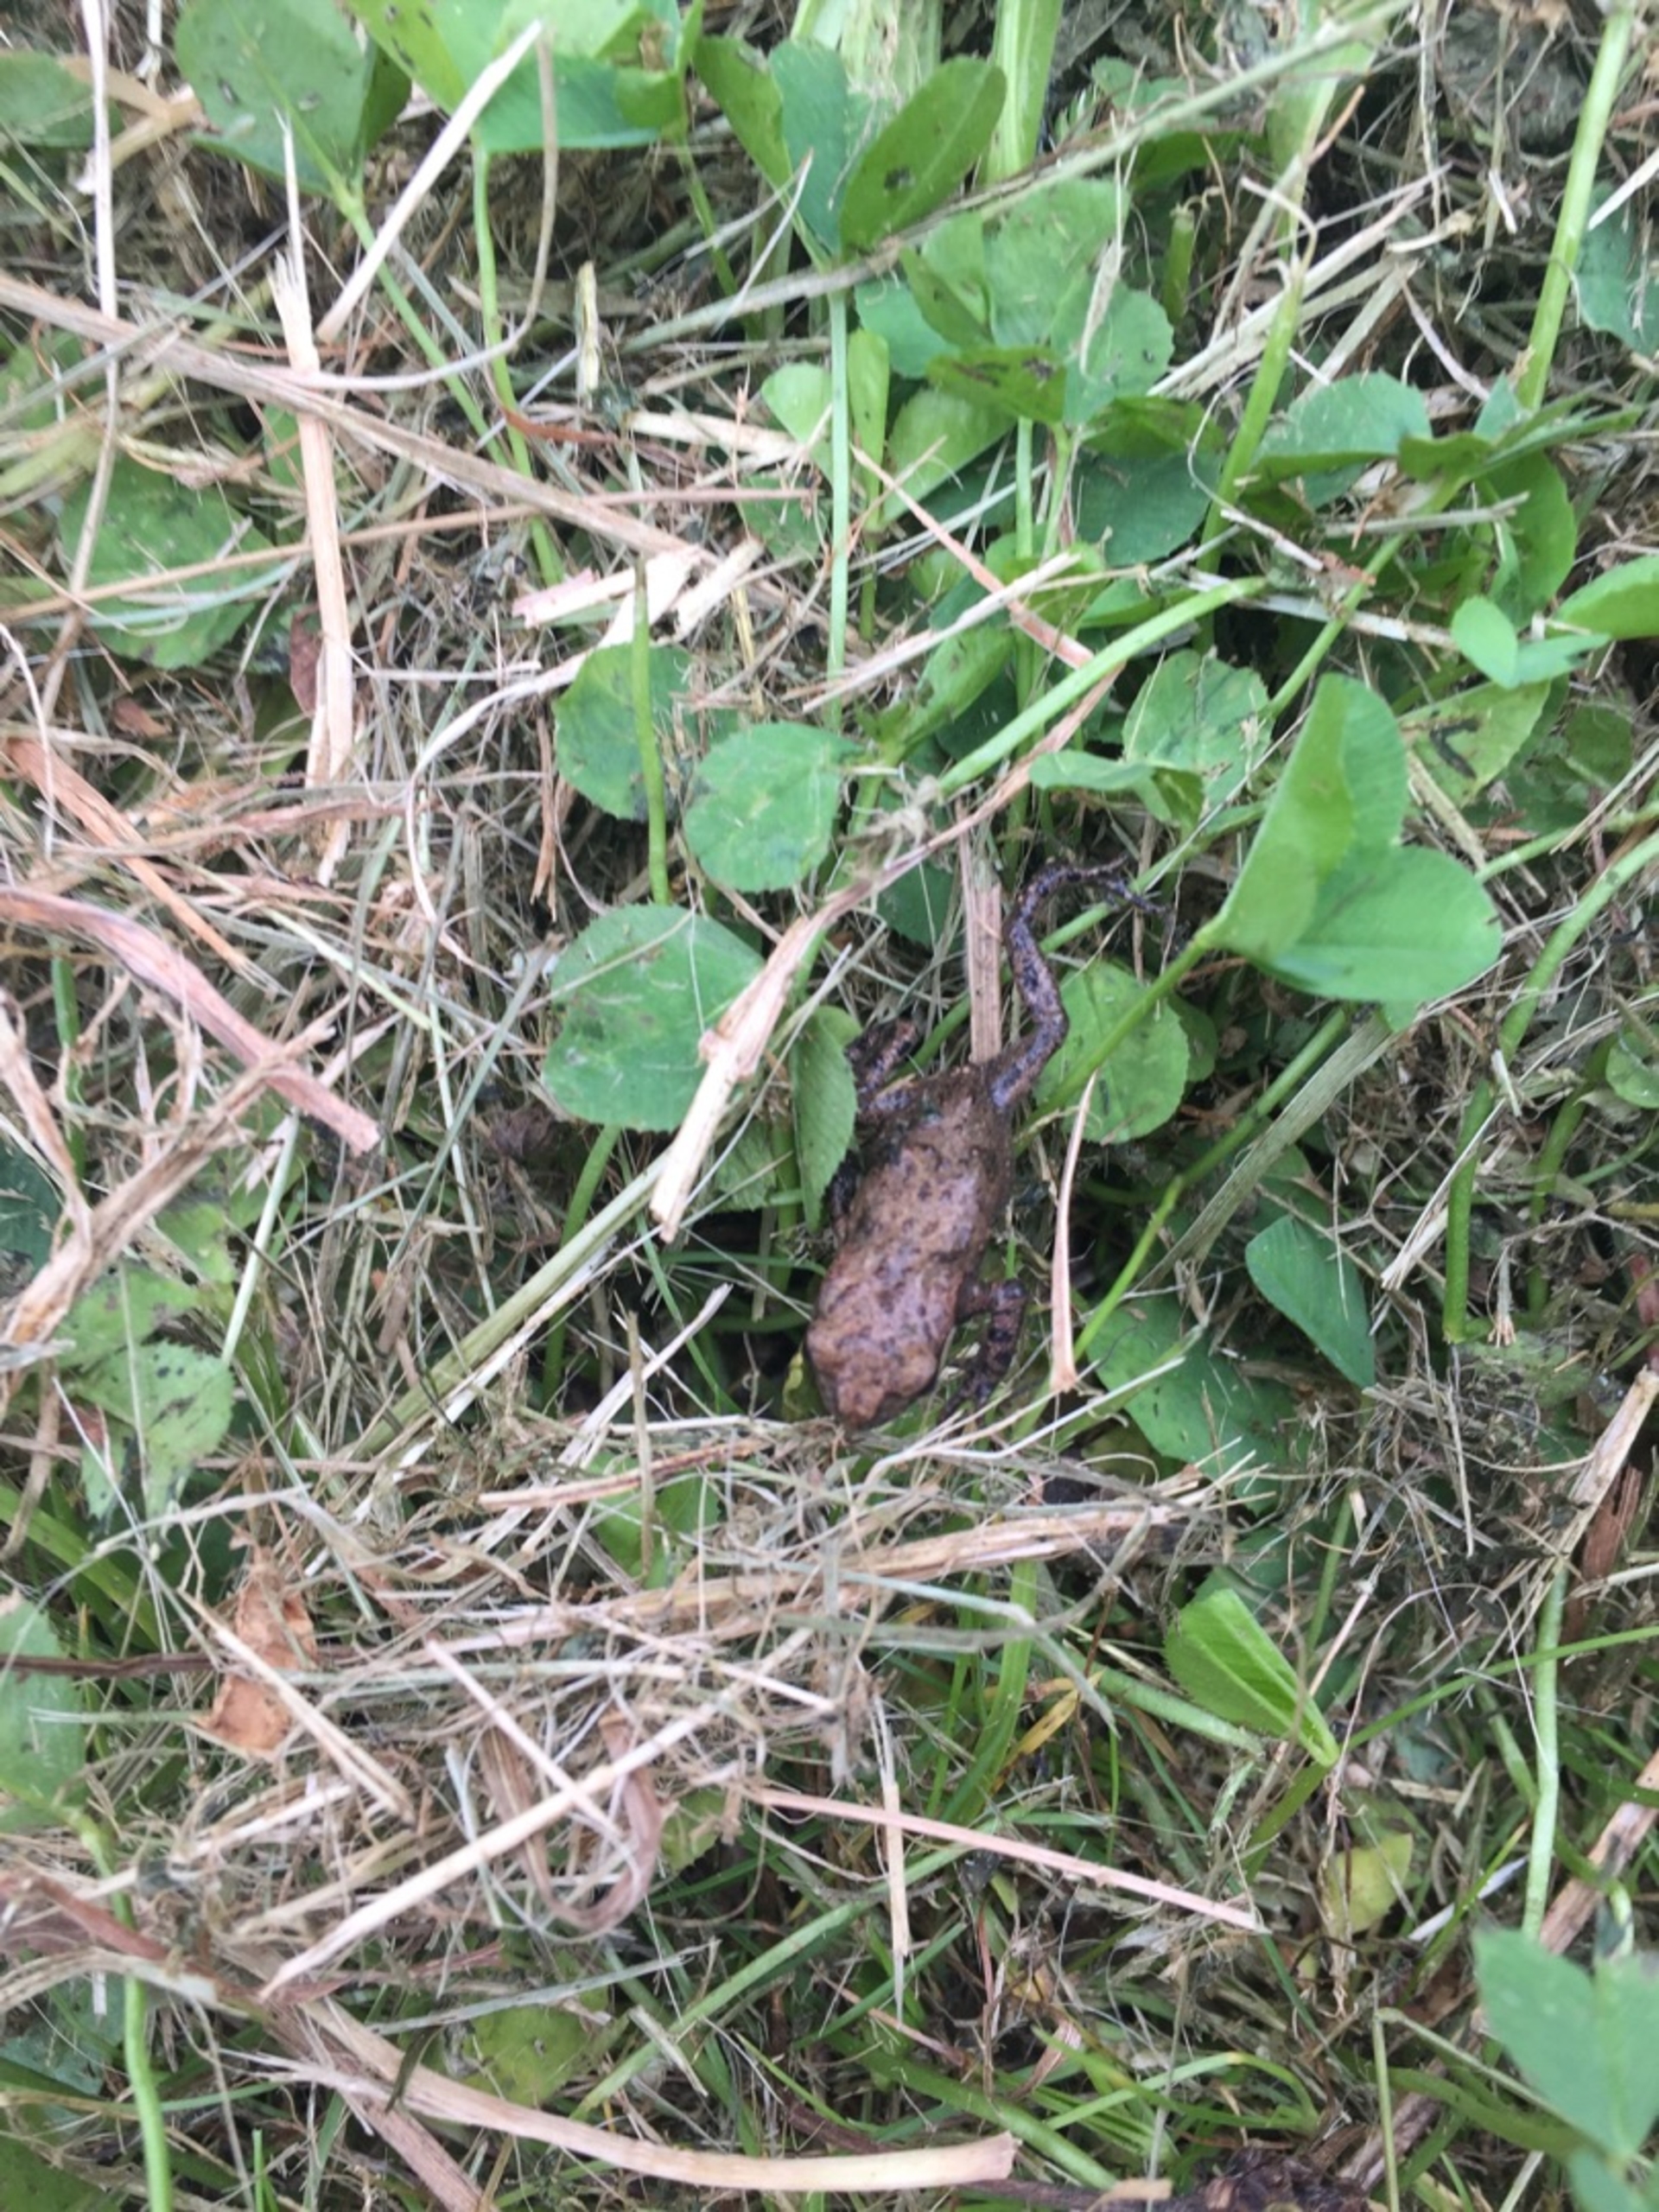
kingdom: Animalia
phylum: Chordata
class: Amphibia
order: Anura
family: Bufonidae
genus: Bufo
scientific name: Bufo bufo
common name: Skrubtudse
